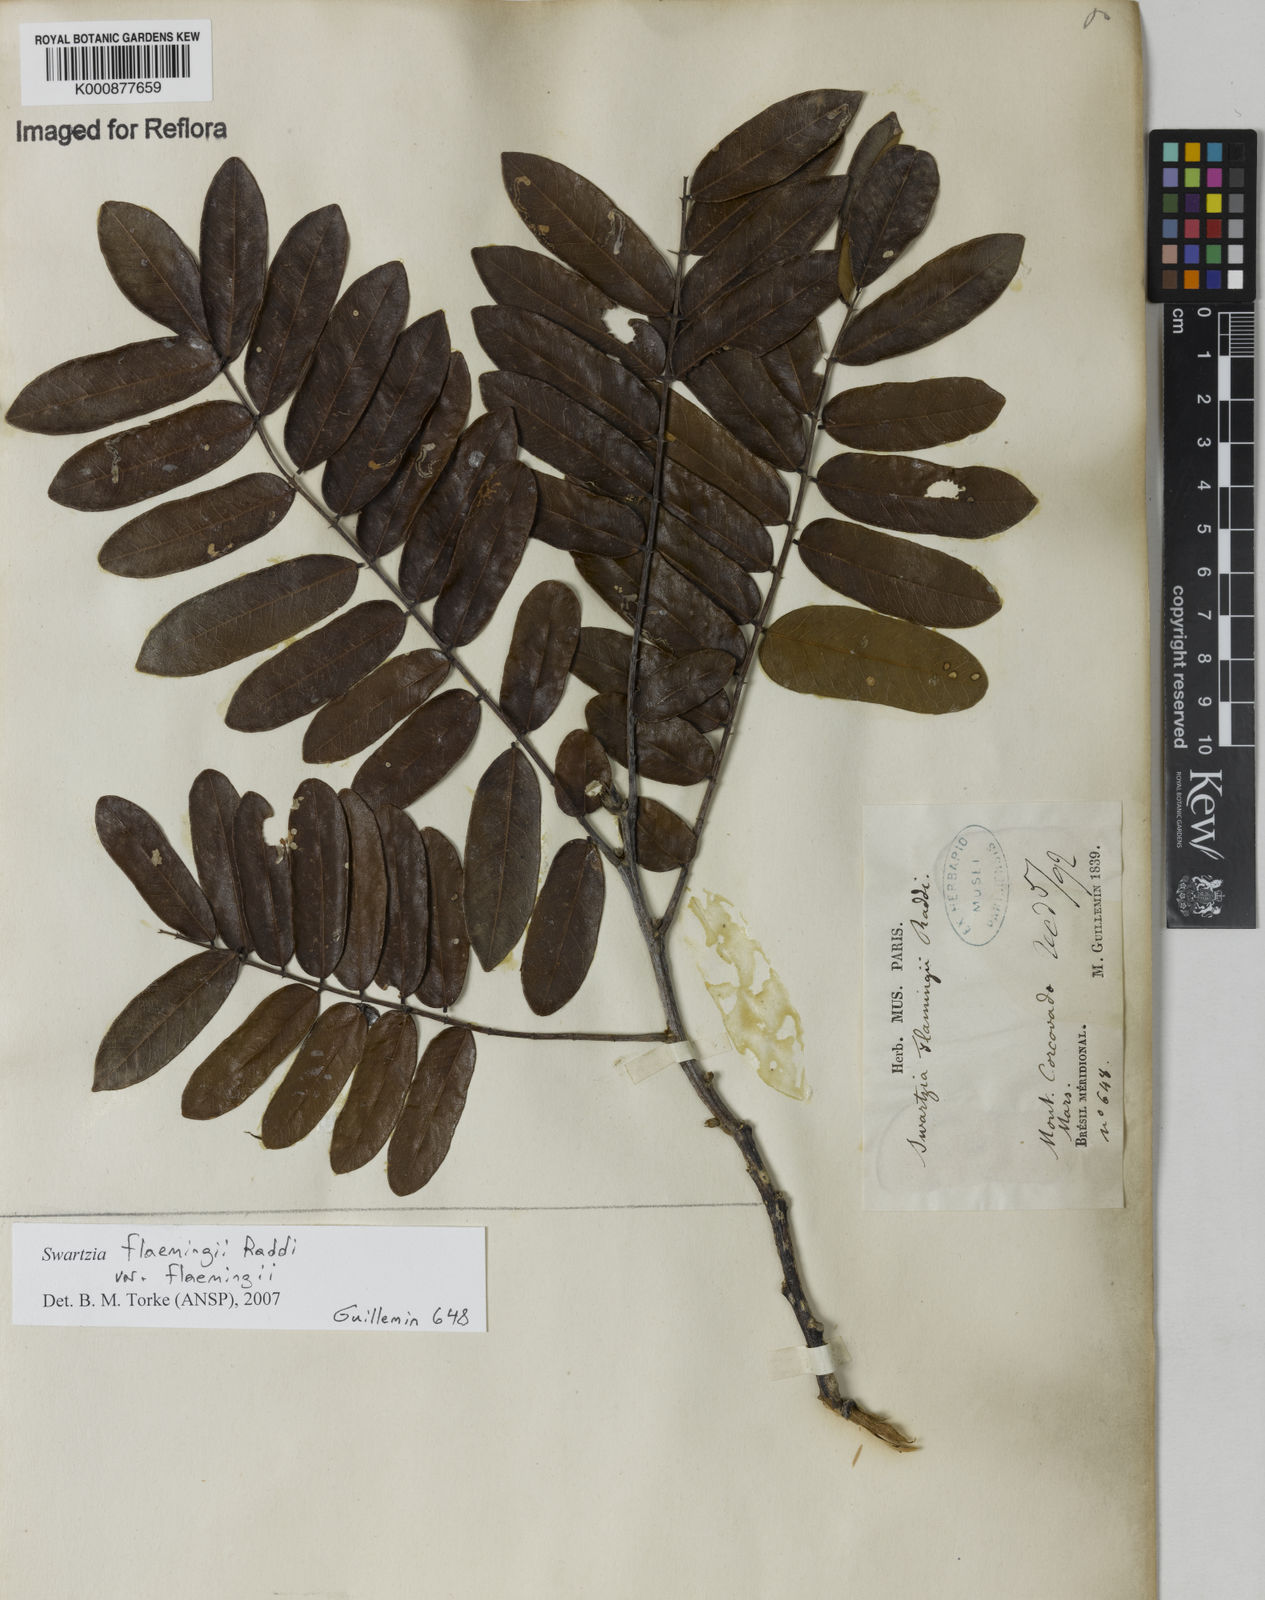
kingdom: Plantae
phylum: Tracheophyta
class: Magnoliopsida
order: Fabales
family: Fabaceae
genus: Swartzia
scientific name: Swartzia flaemingii
